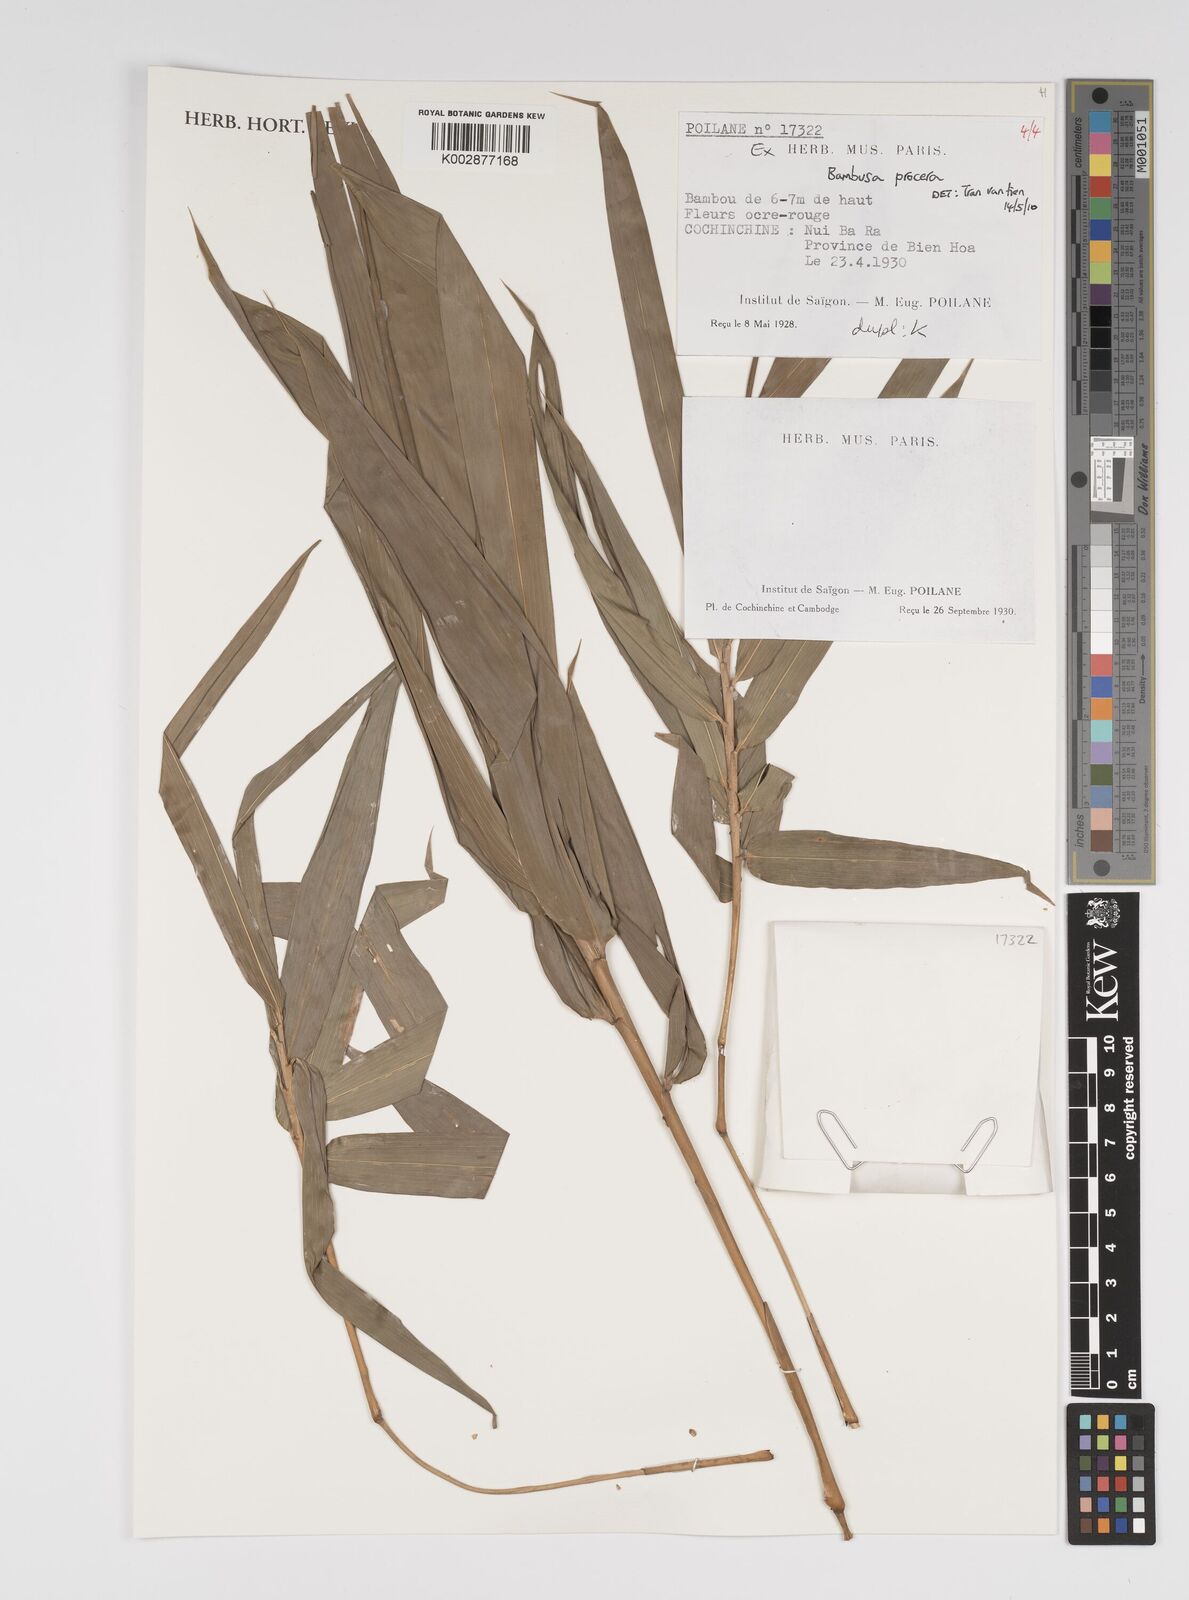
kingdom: Plantae
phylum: Tracheophyta
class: Liliopsida
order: Poales
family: Poaceae
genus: Bambusa
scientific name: Bambusa procera
